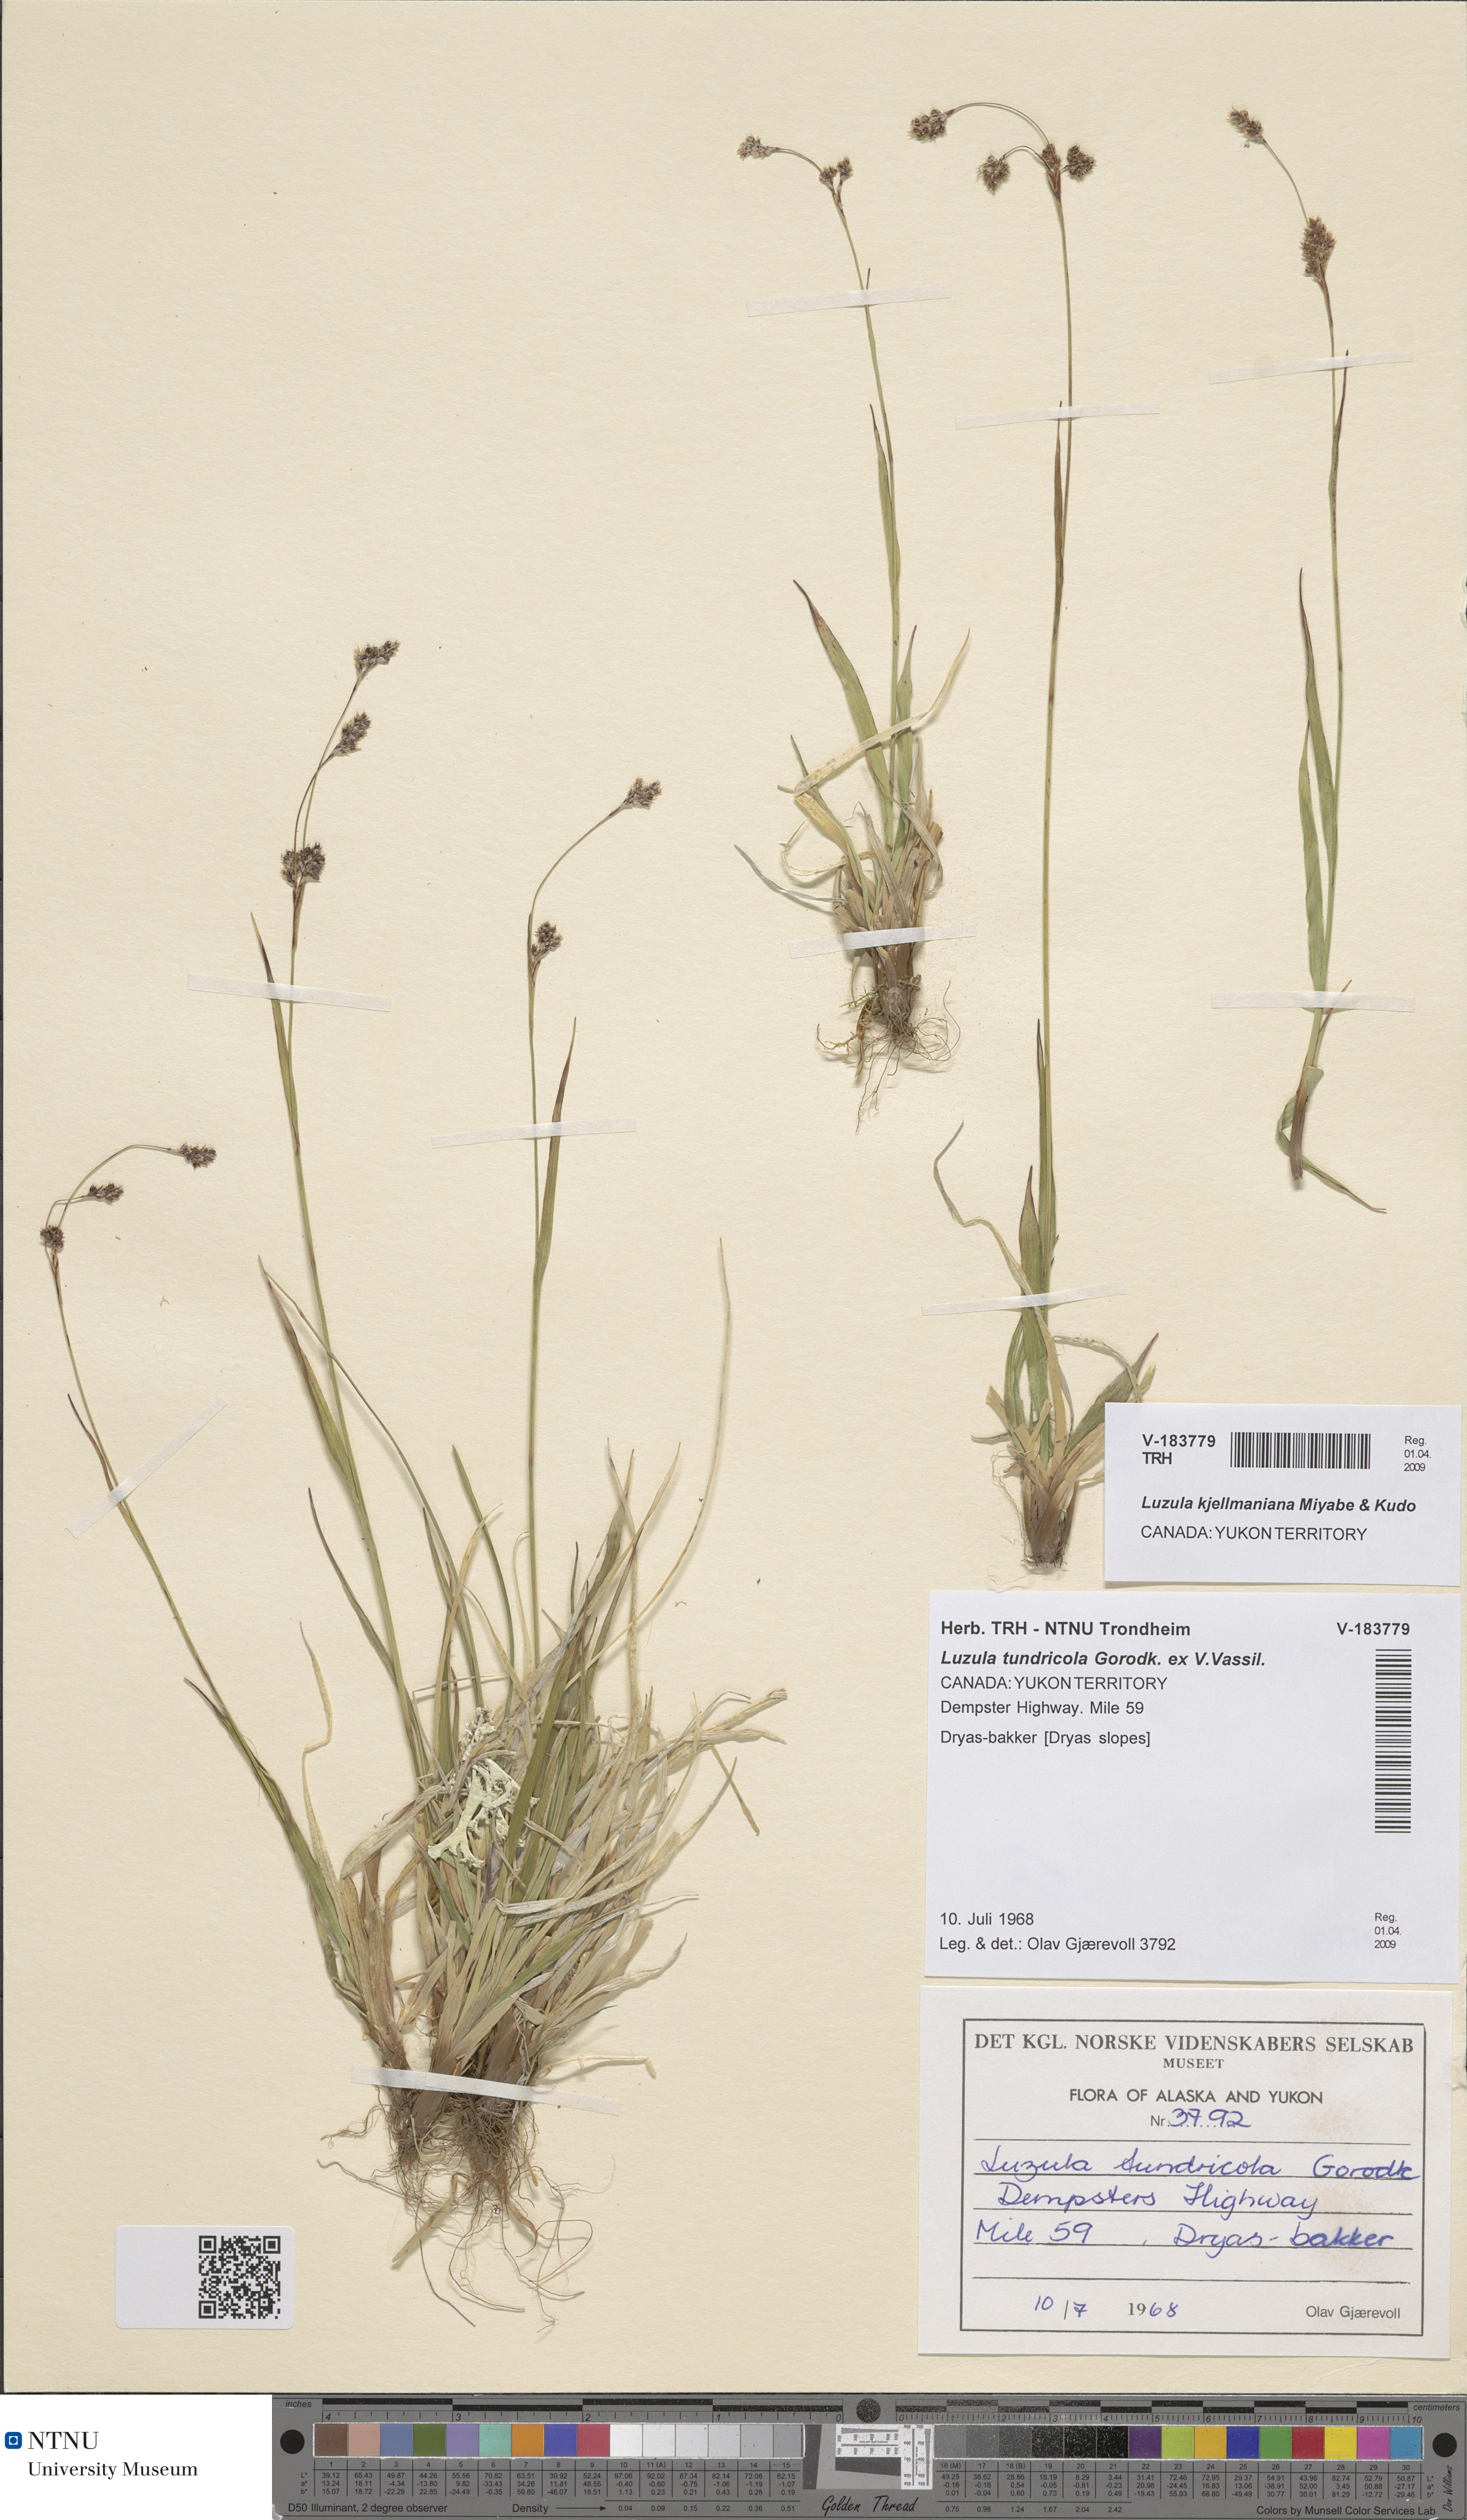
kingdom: Plantae
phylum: Tracheophyta
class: Liliopsida
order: Poales
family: Juncaceae
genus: Luzula
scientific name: Luzula kjellmaniana
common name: Kjellman's woodrush
